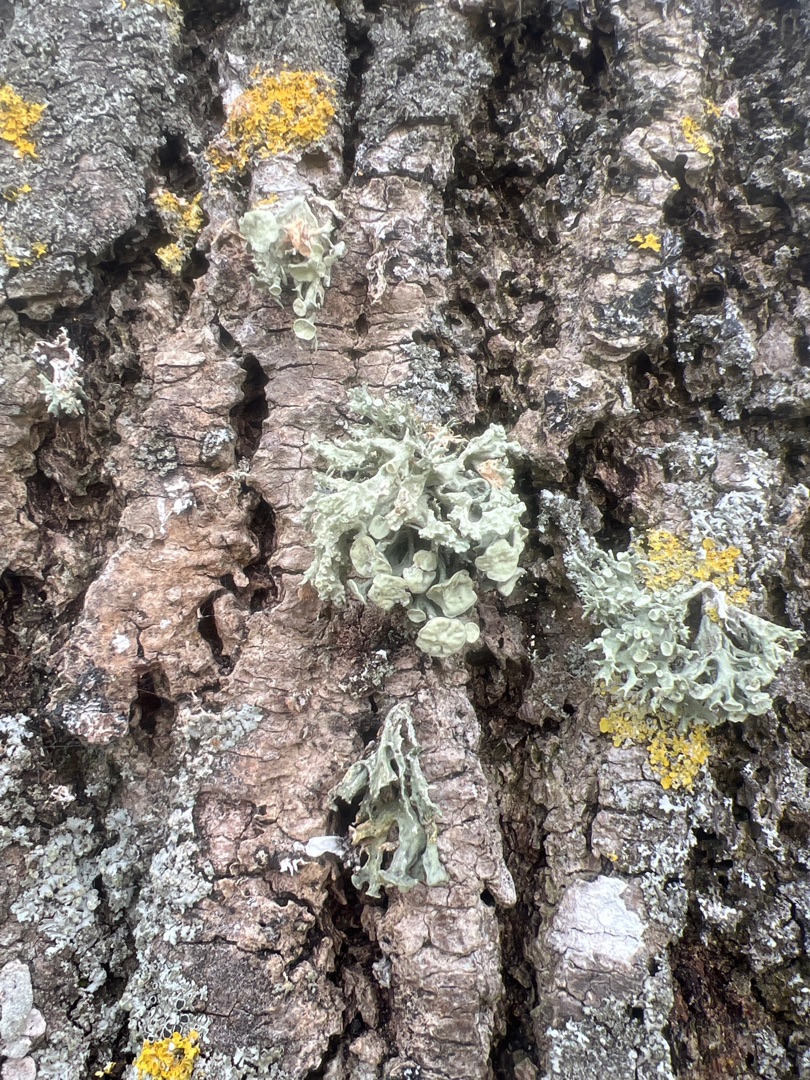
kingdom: Fungi
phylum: Ascomycota
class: Lecanoromycetes
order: Lecanorales
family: Ramalinaceae
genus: Ramalina
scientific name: Ramalina fastigiata
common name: Tue-grenlav
